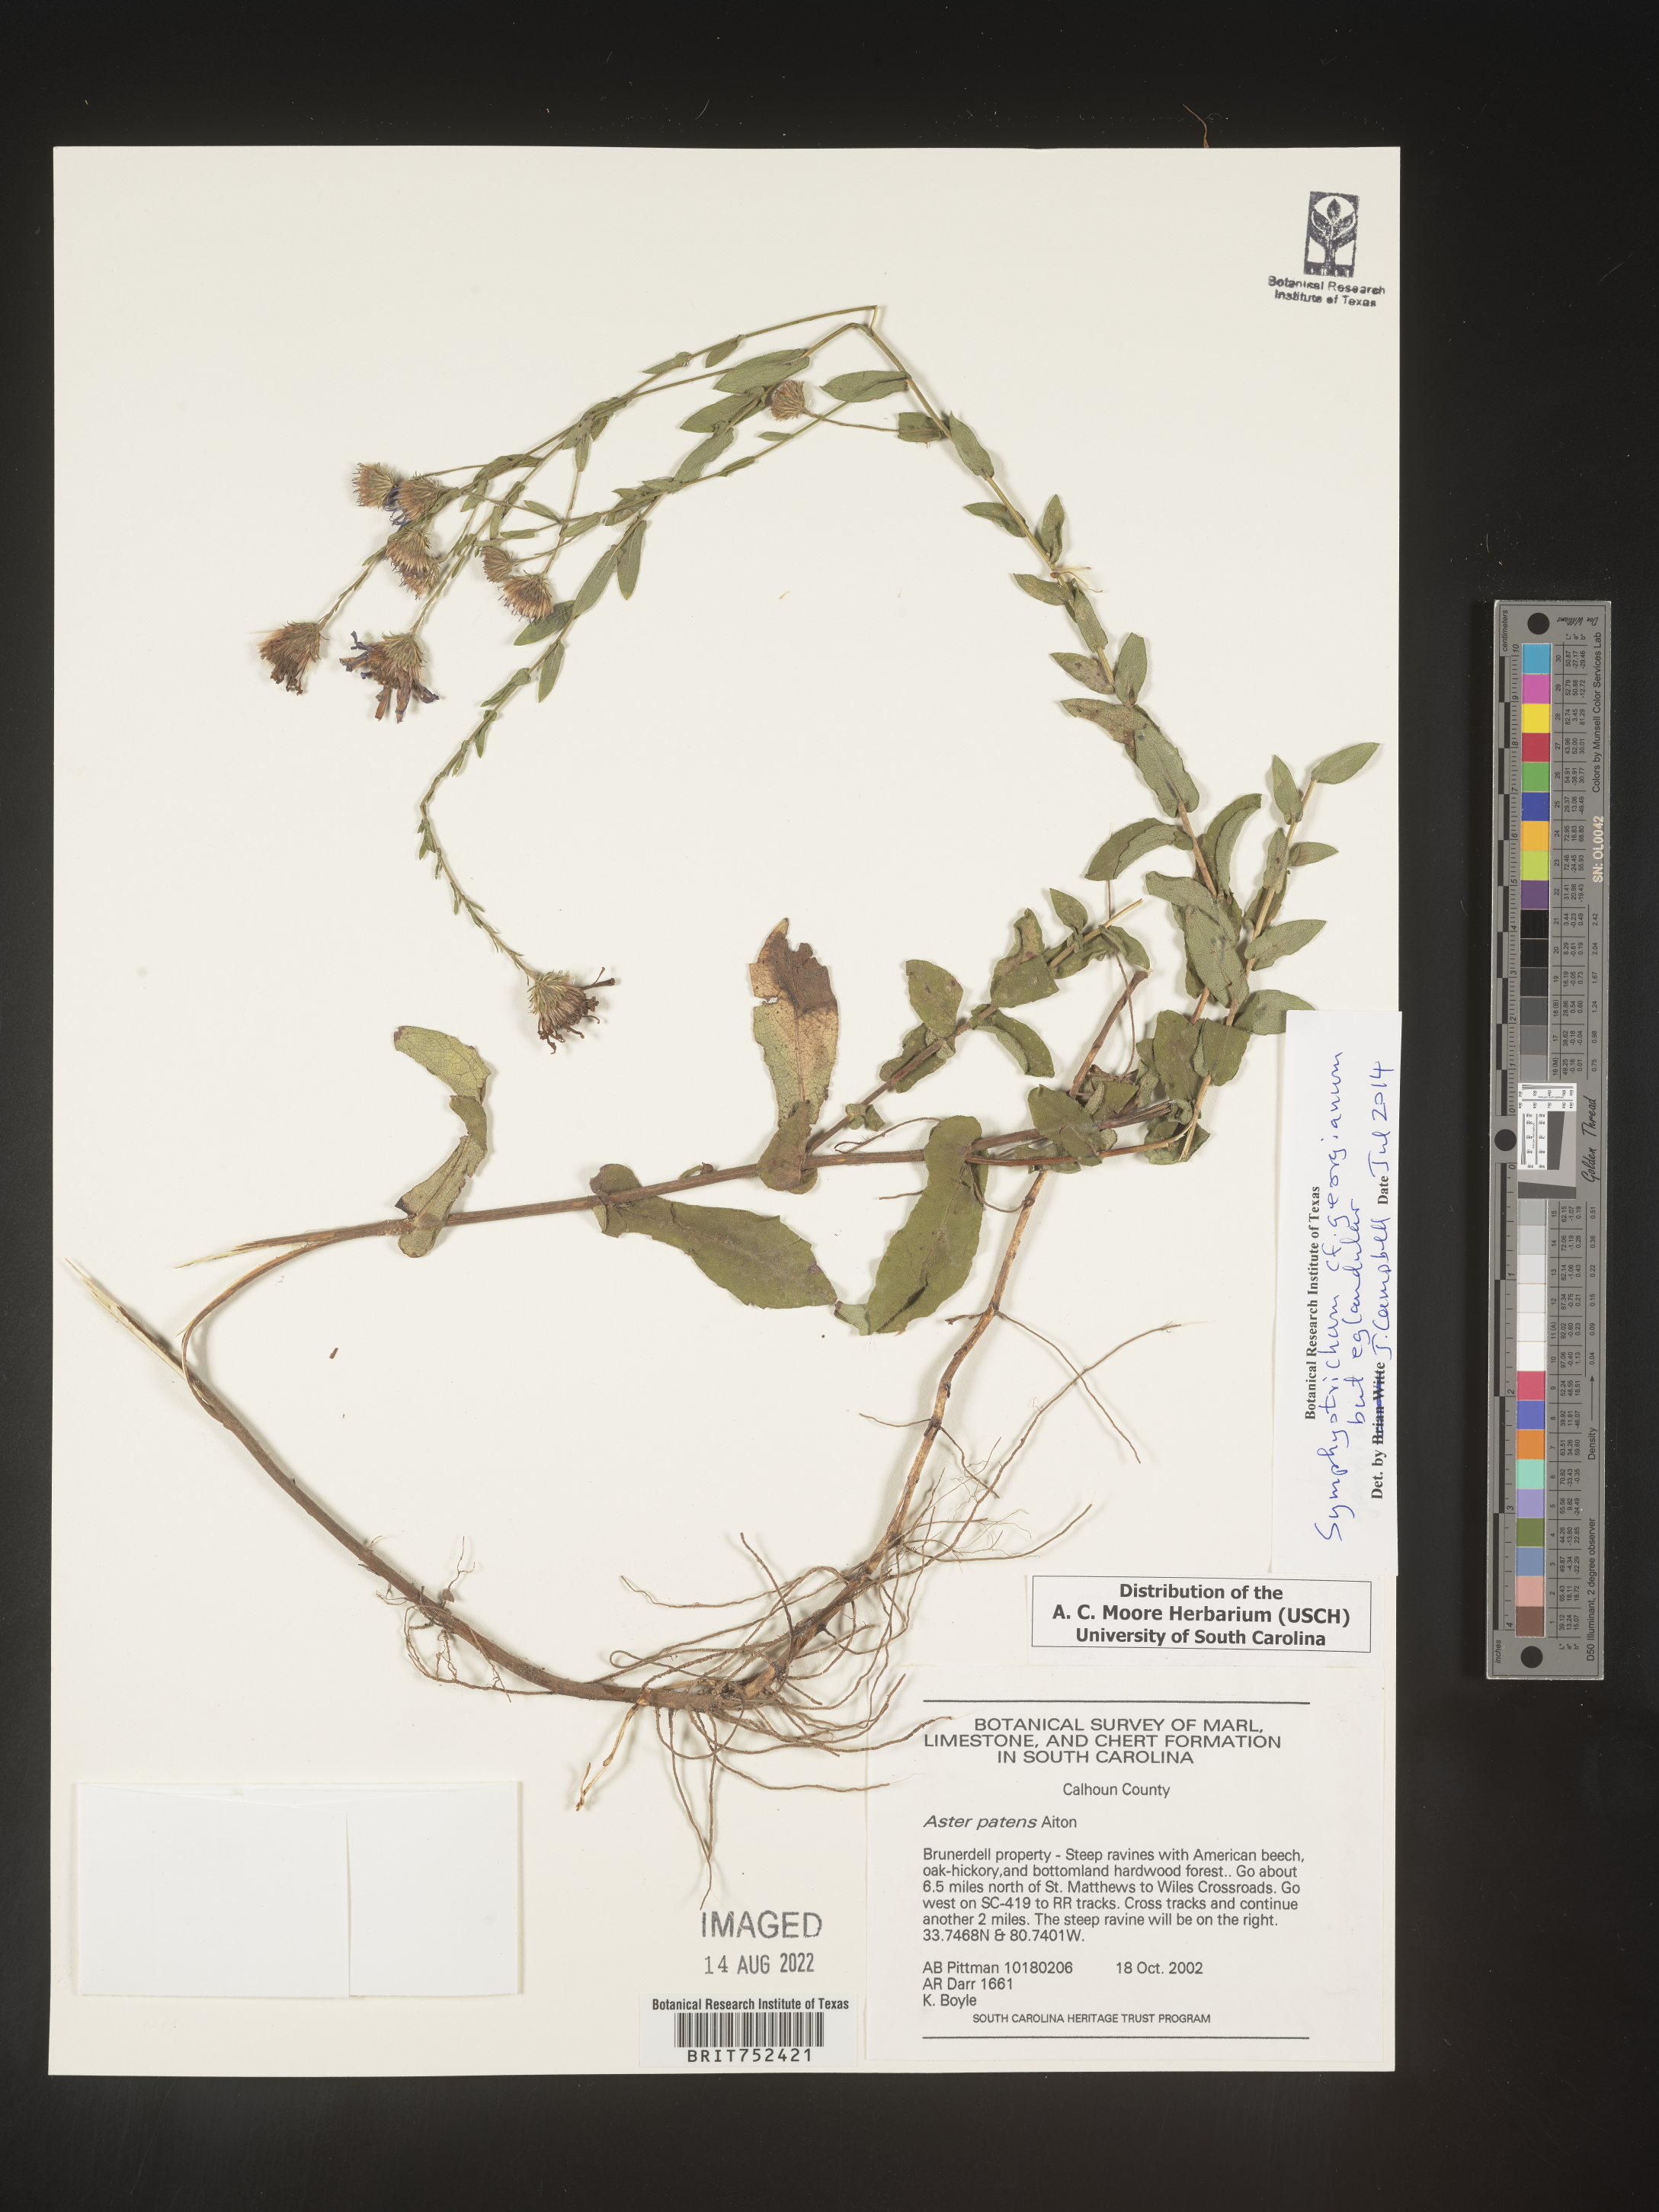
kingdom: Plantae
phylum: Tracheophyta
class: Magnoliopsida
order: Asterales
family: Asteraceae
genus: Symphyotrichum
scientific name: Symphyotrichum georgianum
